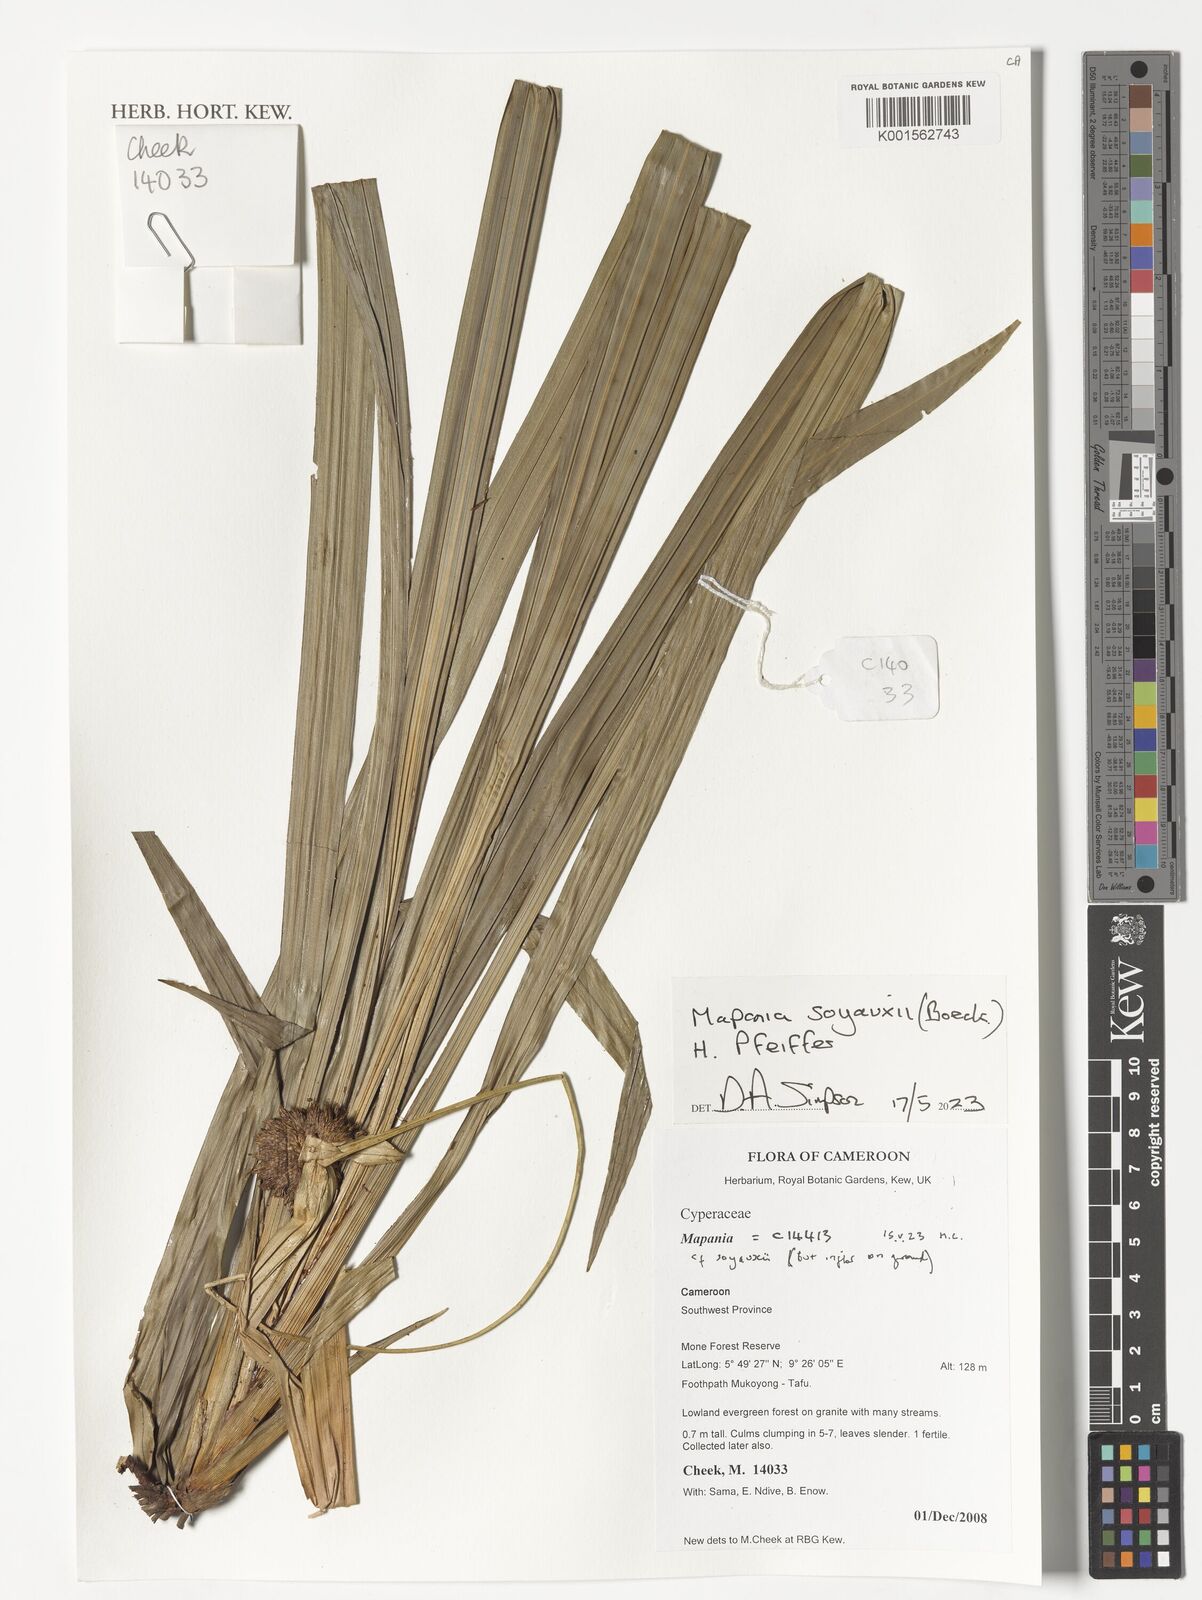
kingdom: Plantae
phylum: Tracheophyta
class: Liliopsida
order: Poales
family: Cyperaceae
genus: Mapania
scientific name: Mapania soyauxii
